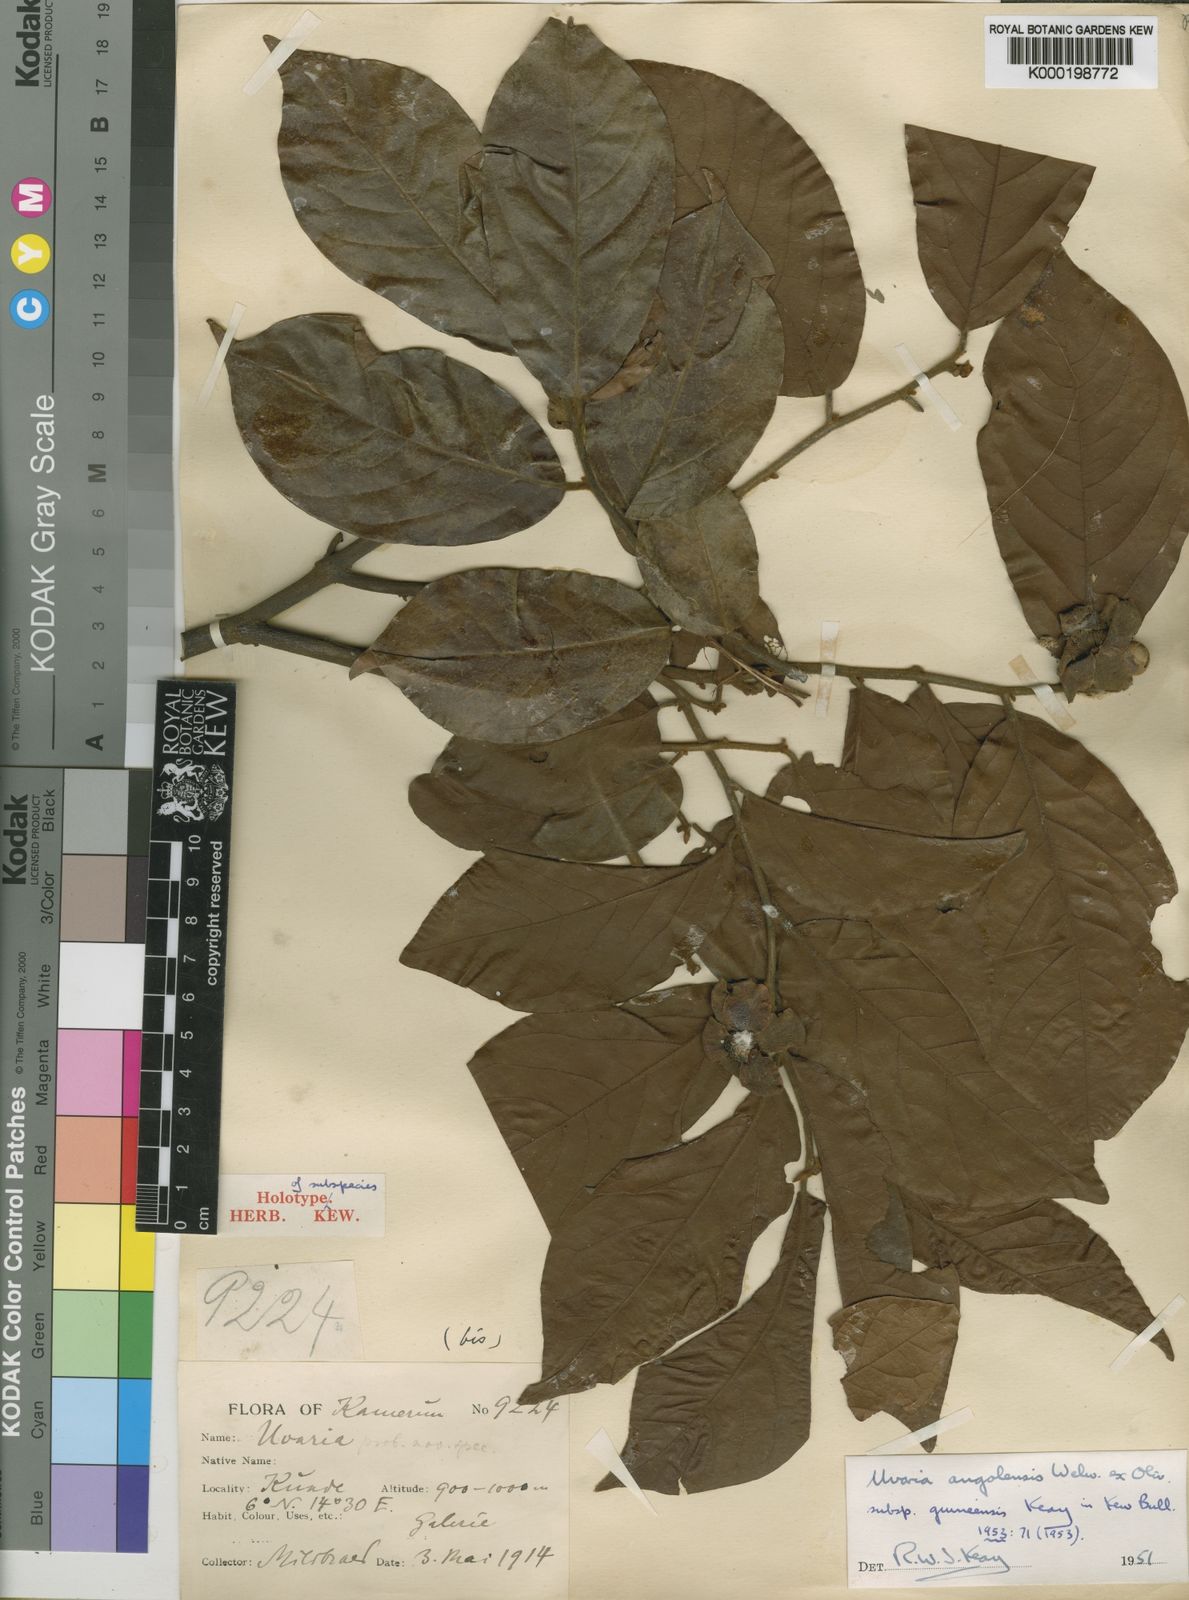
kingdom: Plantae
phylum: Tracheophyta
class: Magnoliopsida
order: Magnoliales
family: Annonaceae
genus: Uvaria
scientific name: Uvaria angolensis
